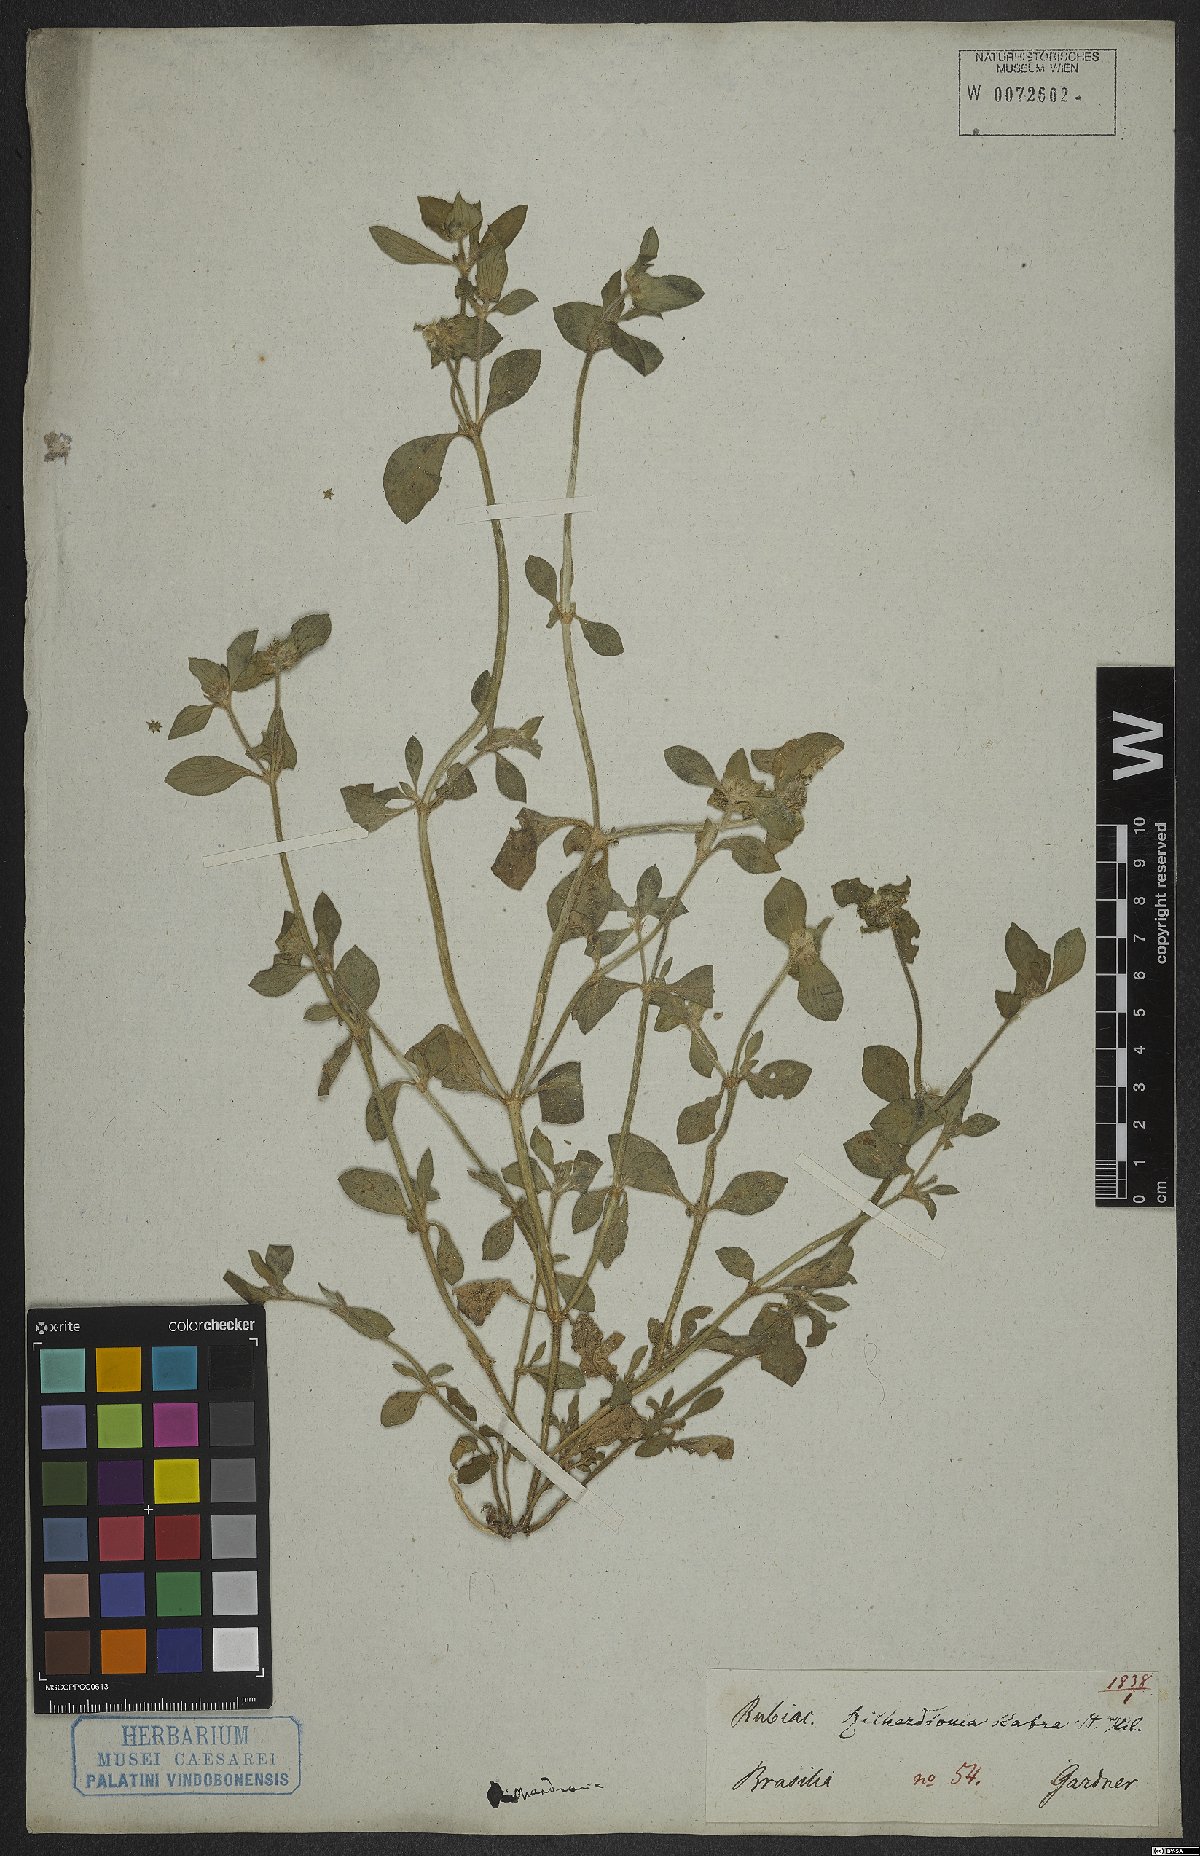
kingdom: Plantae
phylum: Tracheophyta
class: Magnoliopsida
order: Gentianales
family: Rubiaceae
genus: Richardia
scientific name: Richardia scabra
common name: Rough mexican clover
